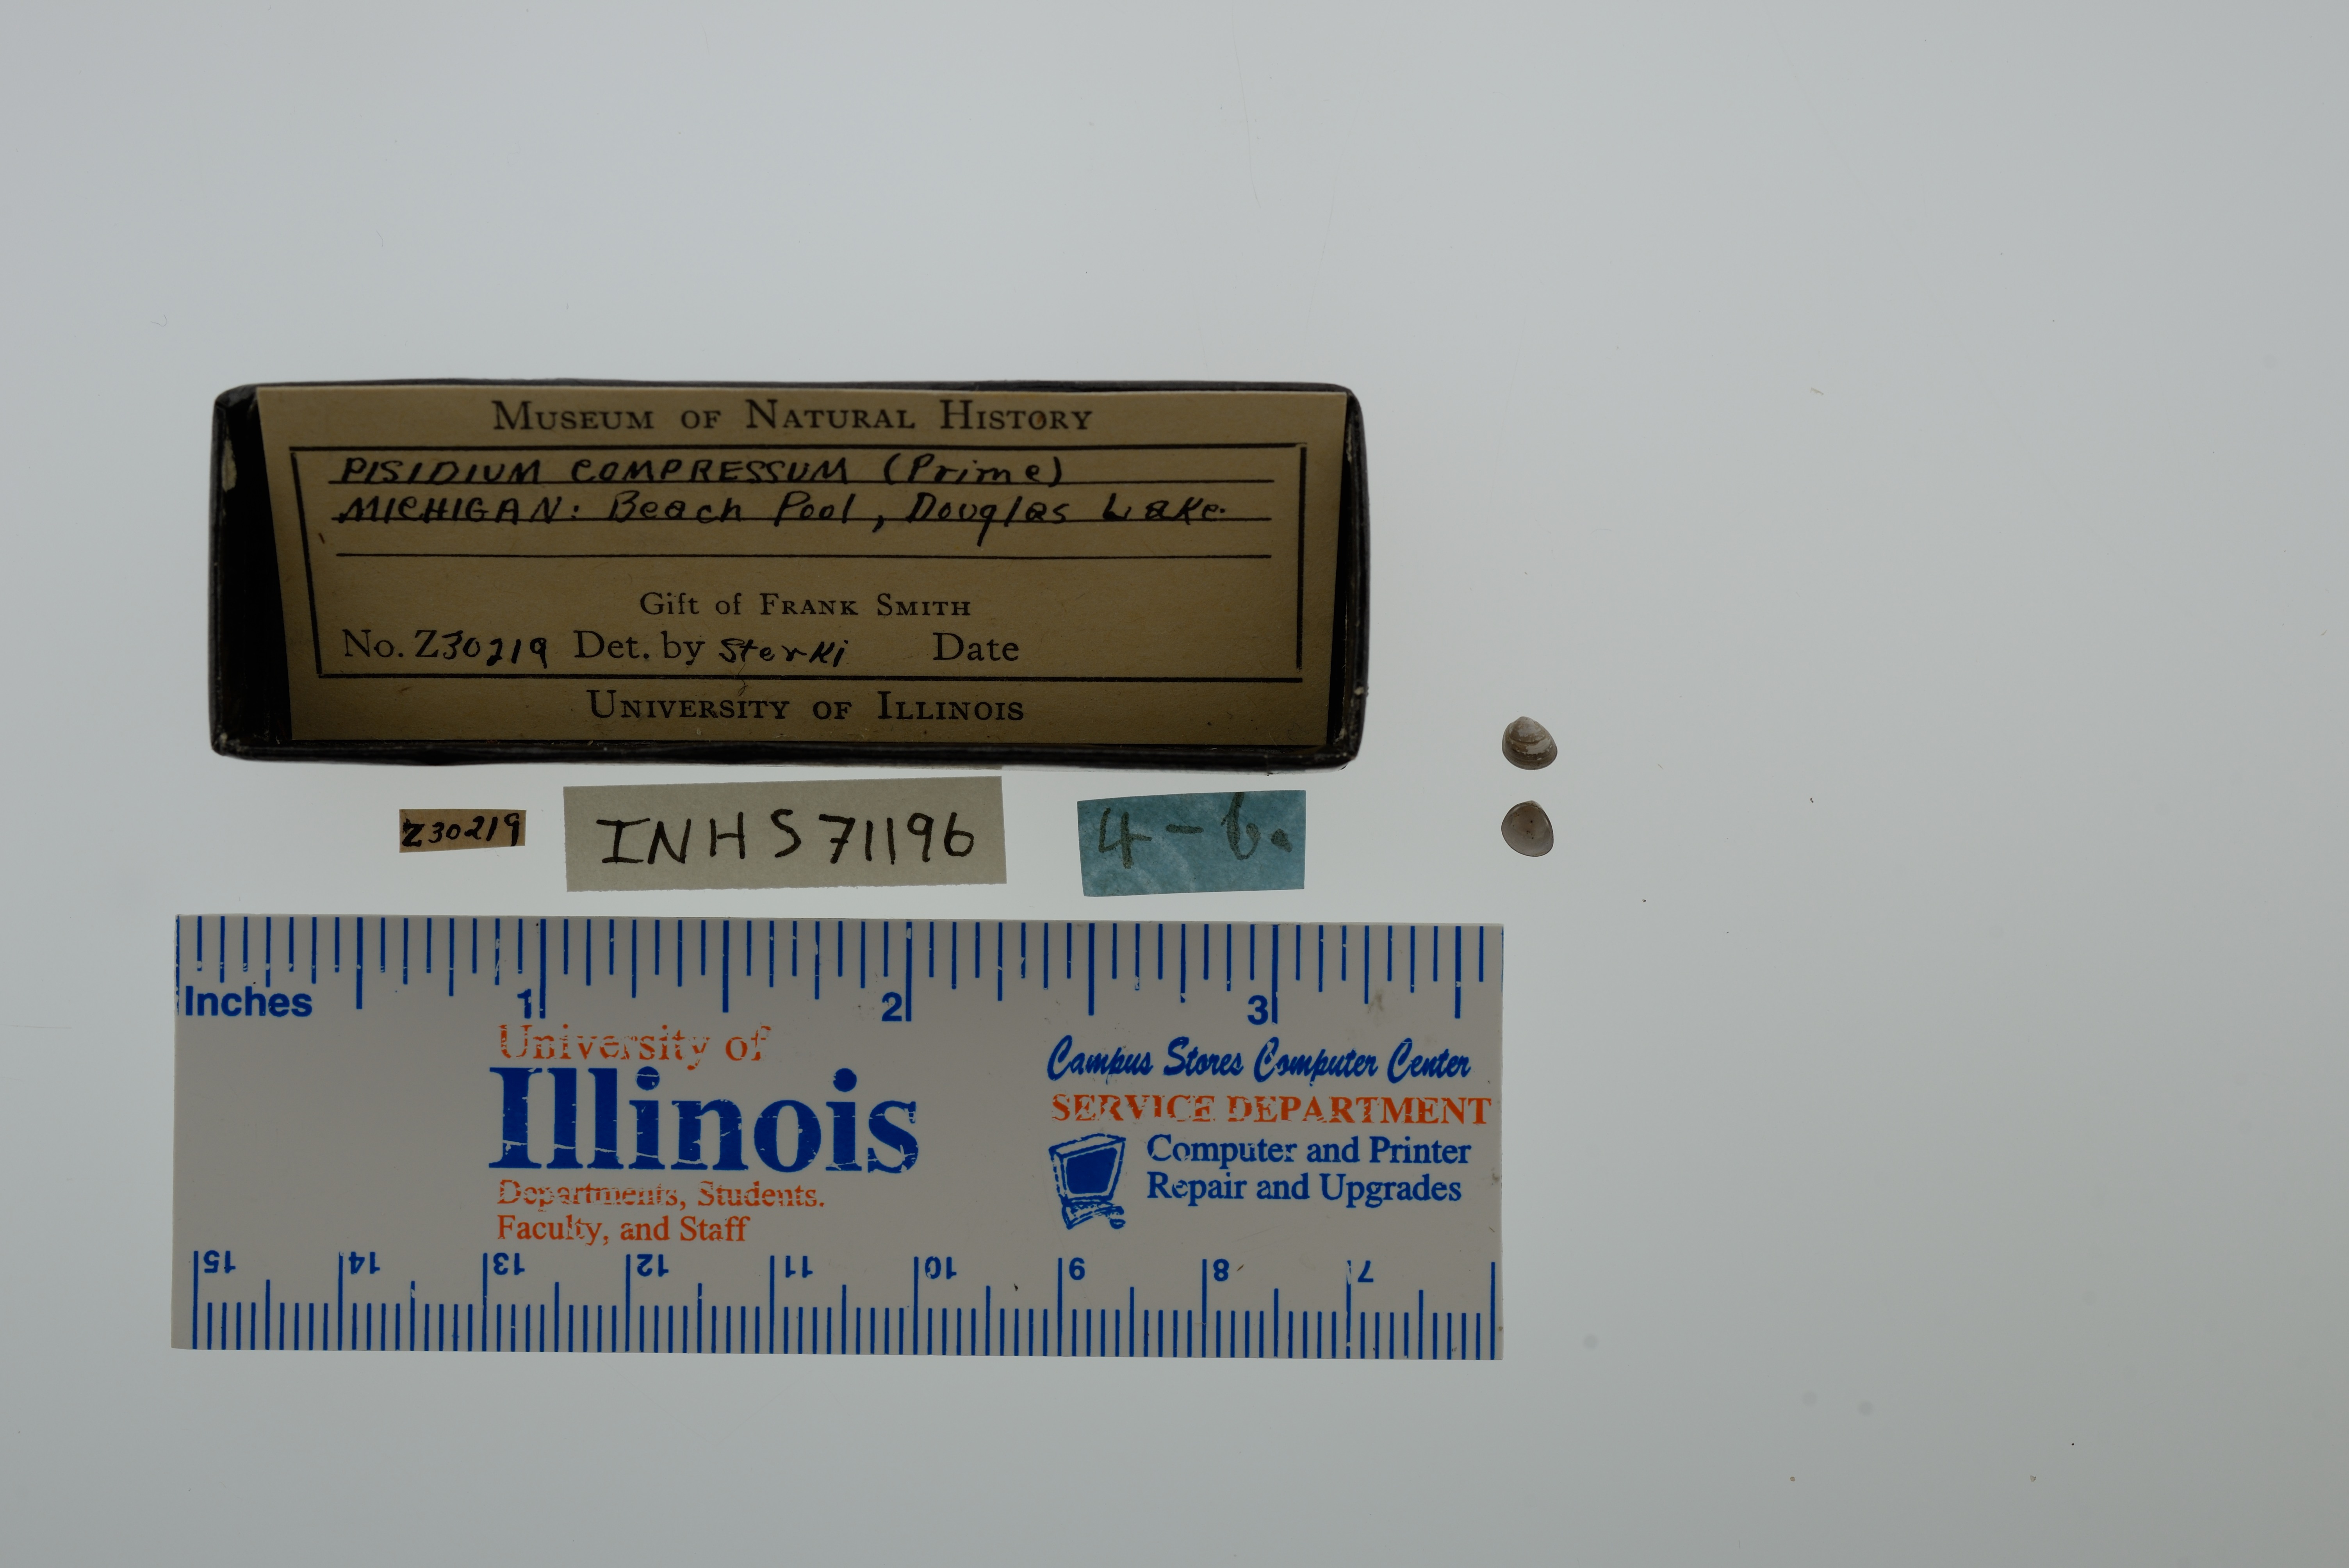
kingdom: Animalia
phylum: Mollusca
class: Bivalvia
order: Sphaeriida
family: Sphaeriidae
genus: Euglesa
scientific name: Euglesa compressa
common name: Ridgedbeak peaclam
